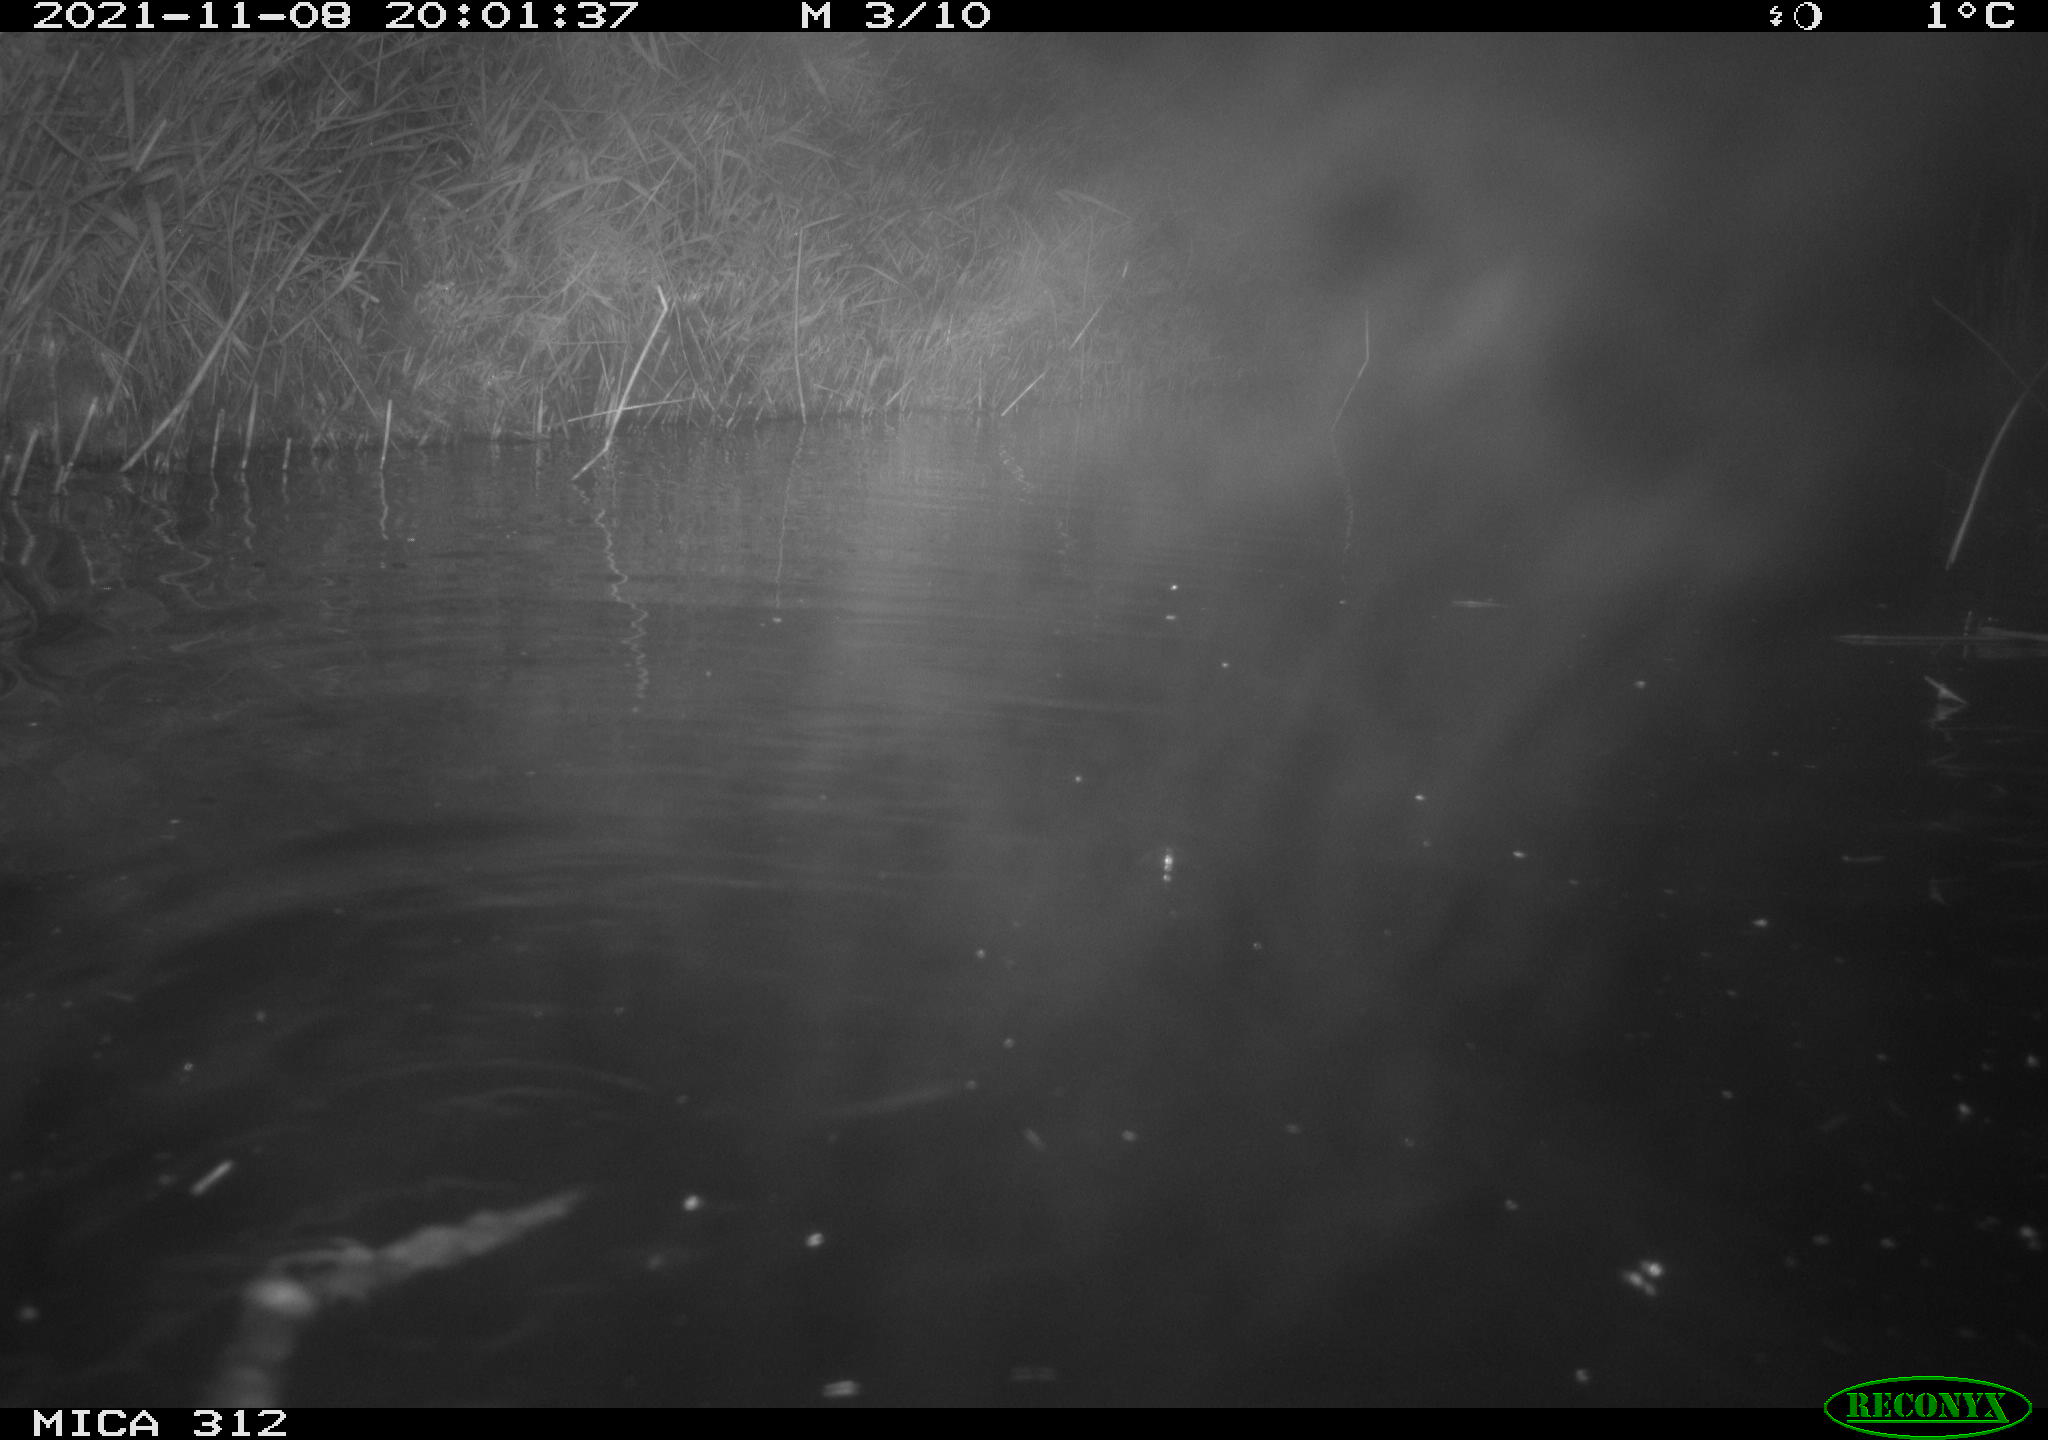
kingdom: Animalia
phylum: Chordata
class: Mammalia
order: Rodentia
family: Cricetidae
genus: Ondatra
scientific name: Ondatra zibethicus
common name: Muskrat
